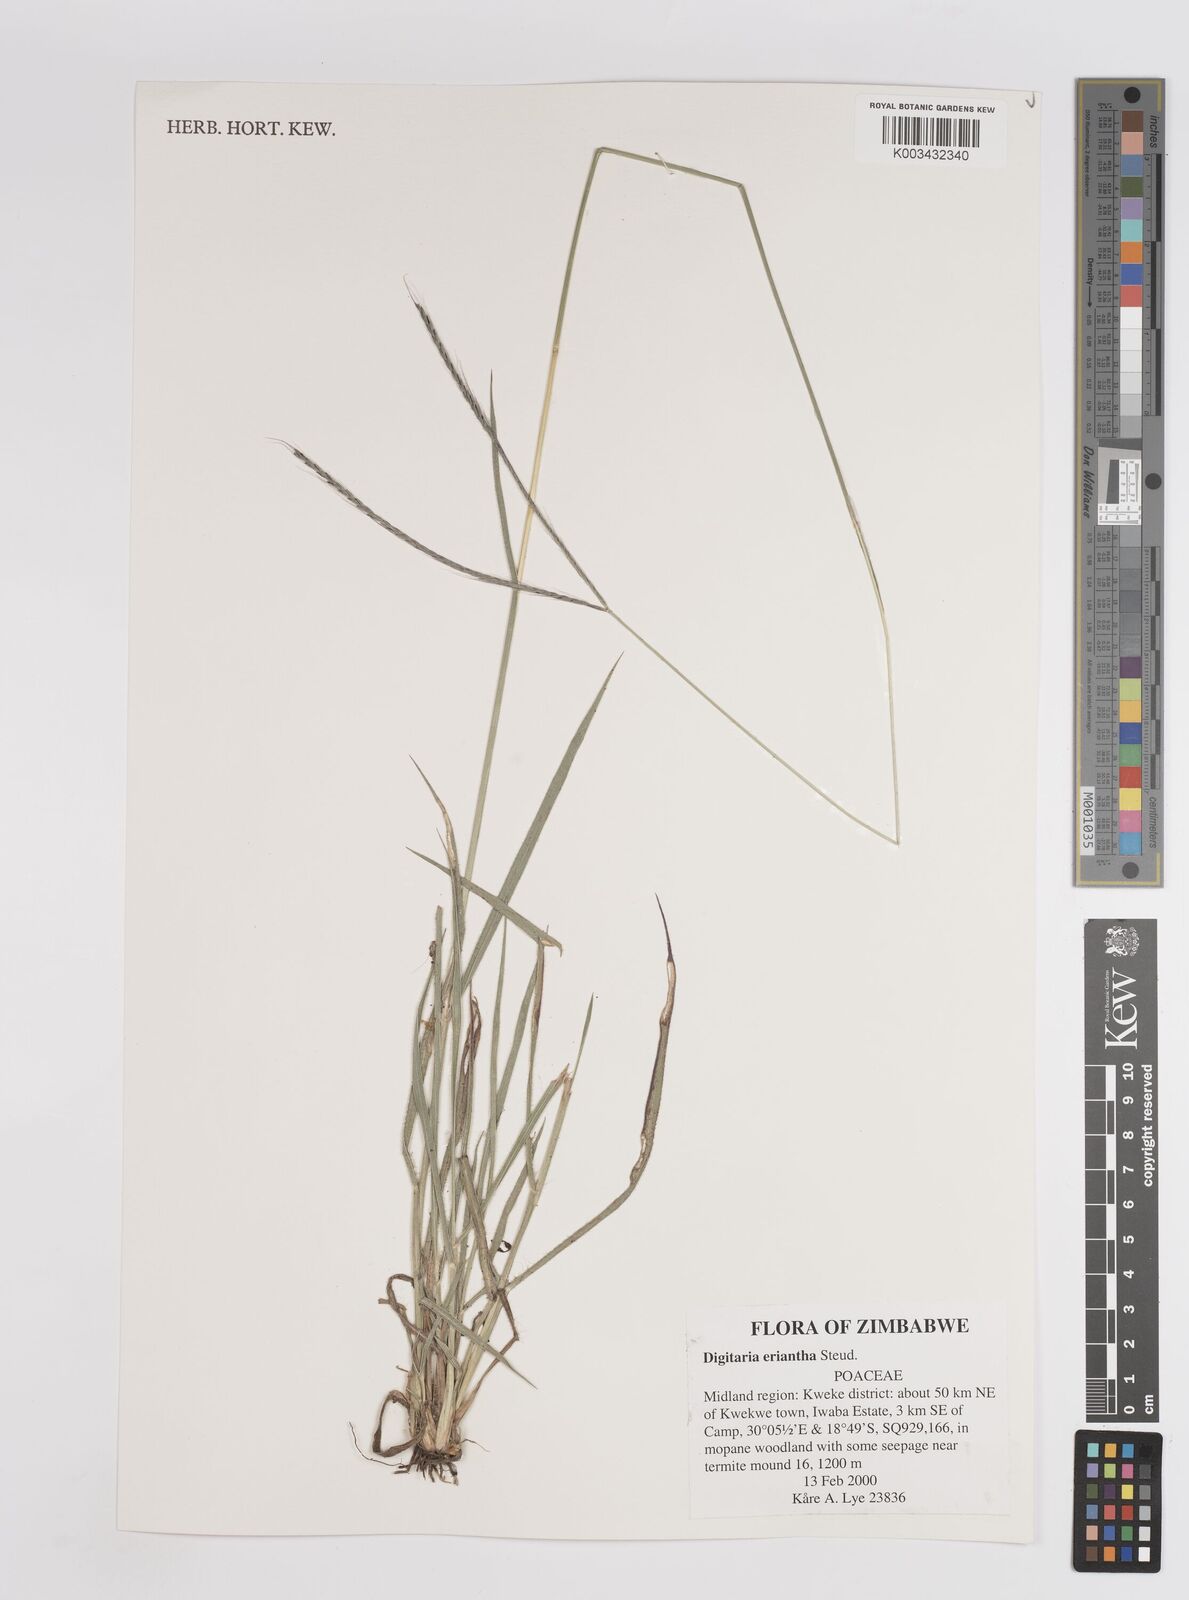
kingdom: Plantae
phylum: Tracheophyta
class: Liliopsida
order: Poales
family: Poaceae
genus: Digitaria
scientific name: Digitaria eriantha
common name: Digitgrass
